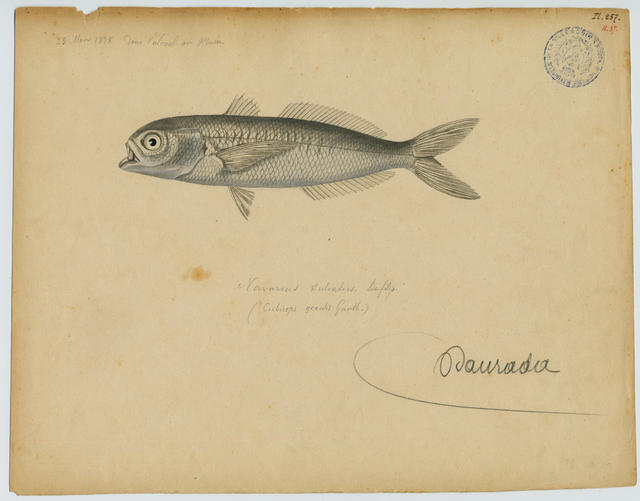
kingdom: Animalia
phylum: Chordata
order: Perciformes
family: Nomeidae
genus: Cubiceps
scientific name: Cubiceps gracilis
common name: Driftfish
